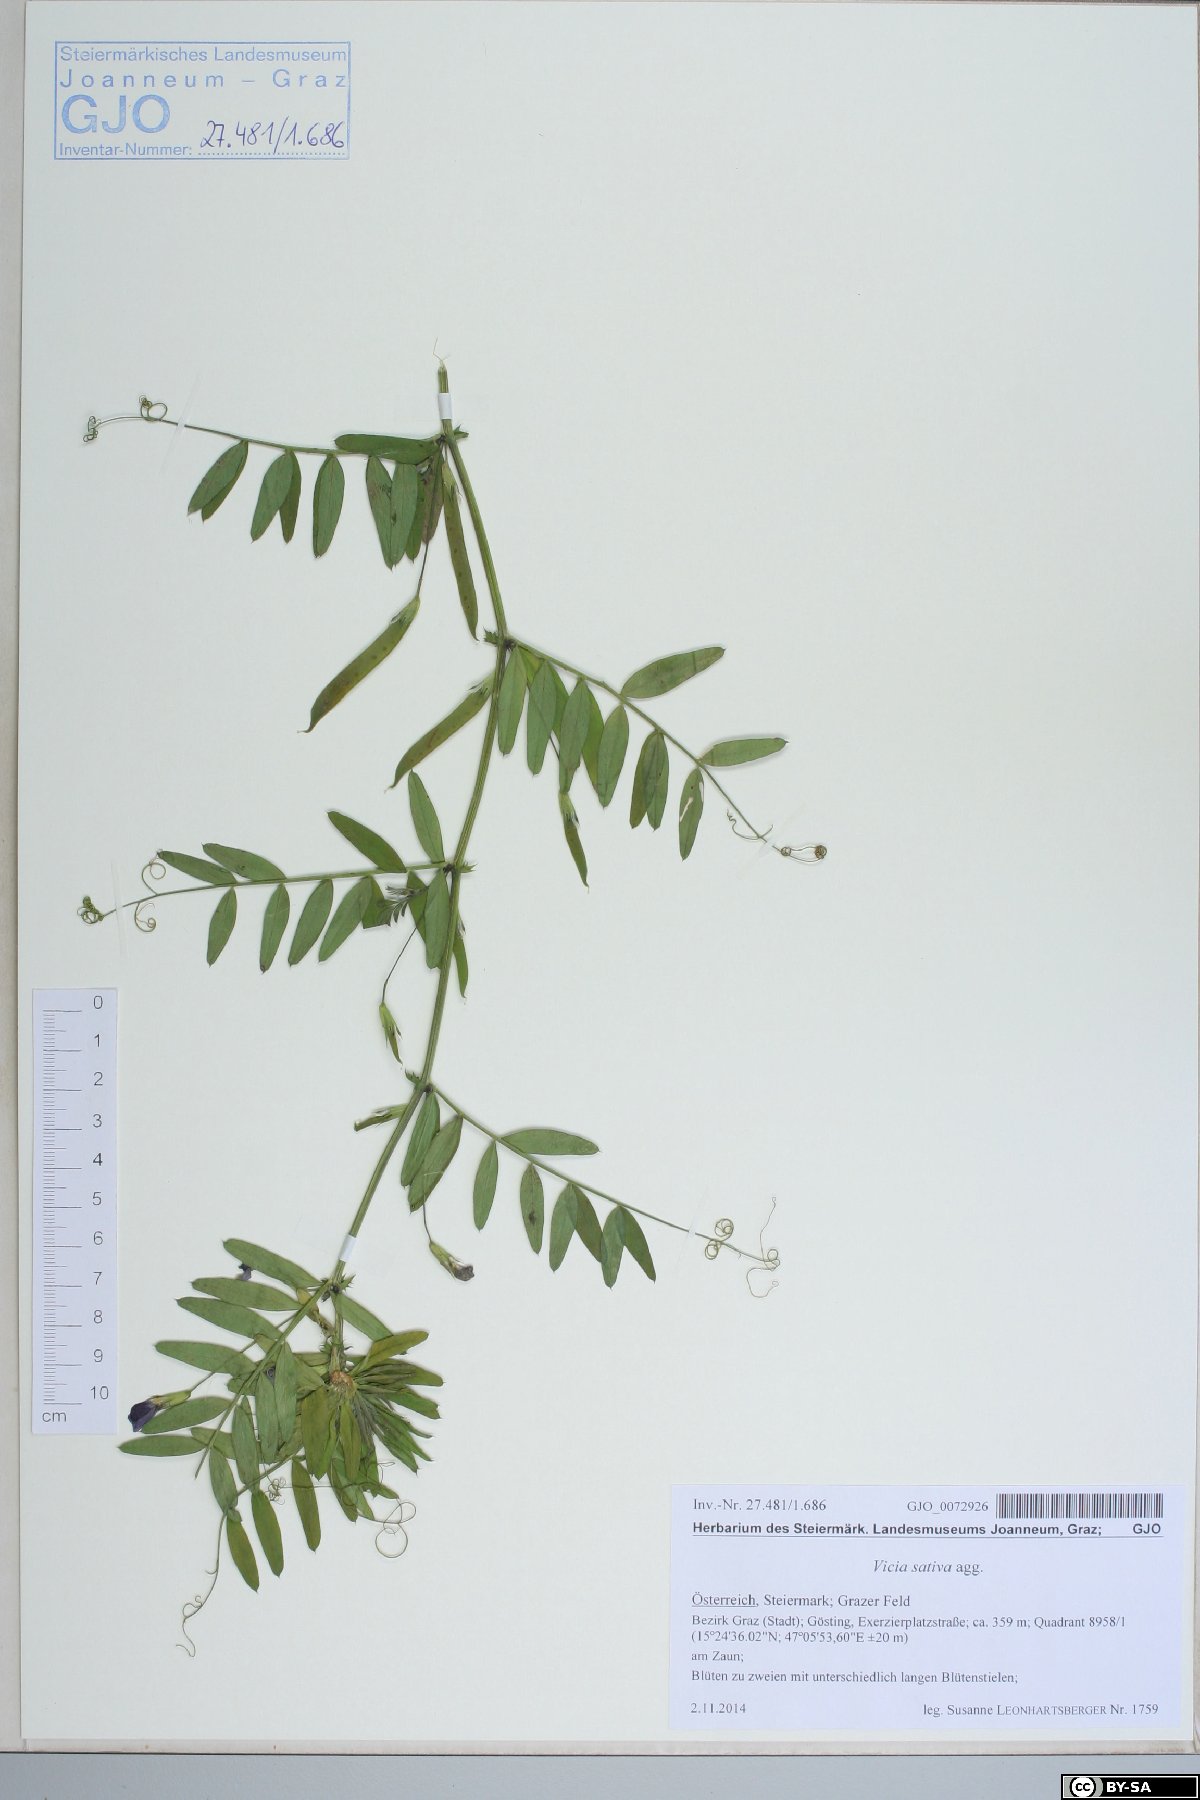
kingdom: Plantae
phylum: Tracheophyta
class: Magnoliopsida
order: Fabales
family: Fabaceae
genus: Vicia
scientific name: Vicia sativa
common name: Garden vetch
